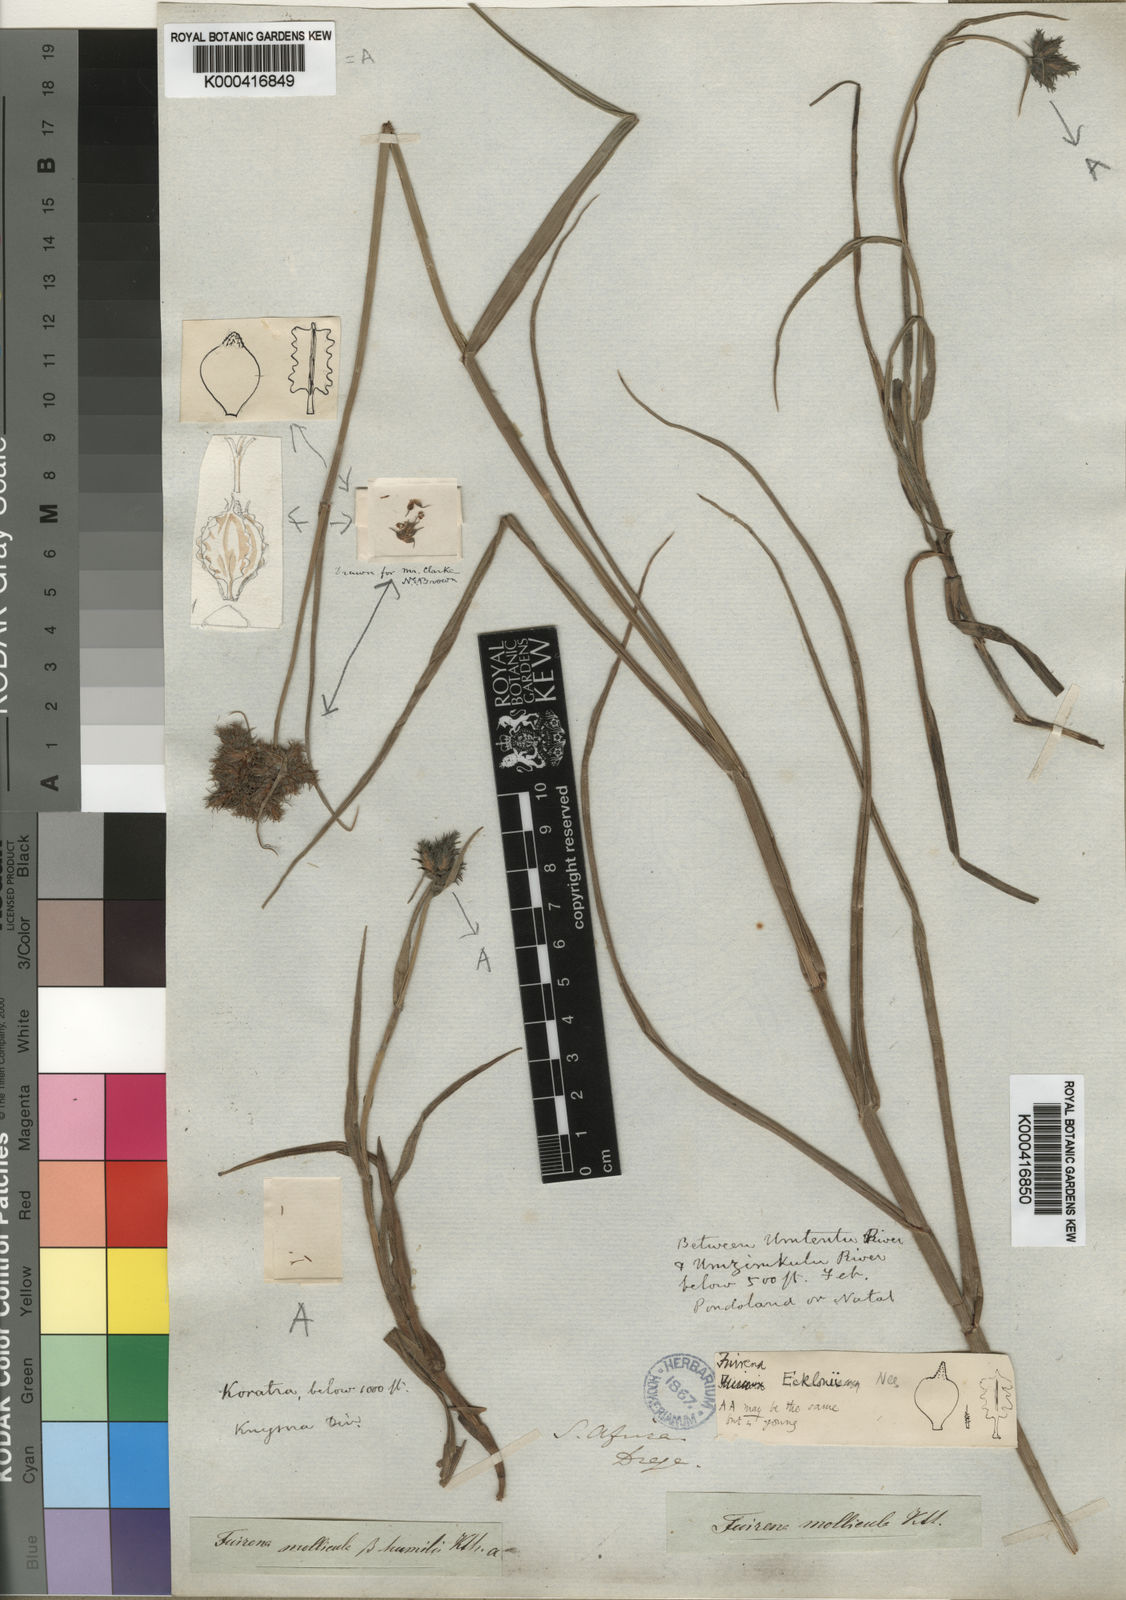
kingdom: Plantae
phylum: Tracheophyta
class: Liliopsida
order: Poales
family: Cyperaceae
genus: Fuirena
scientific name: Fuirena ecklonii
